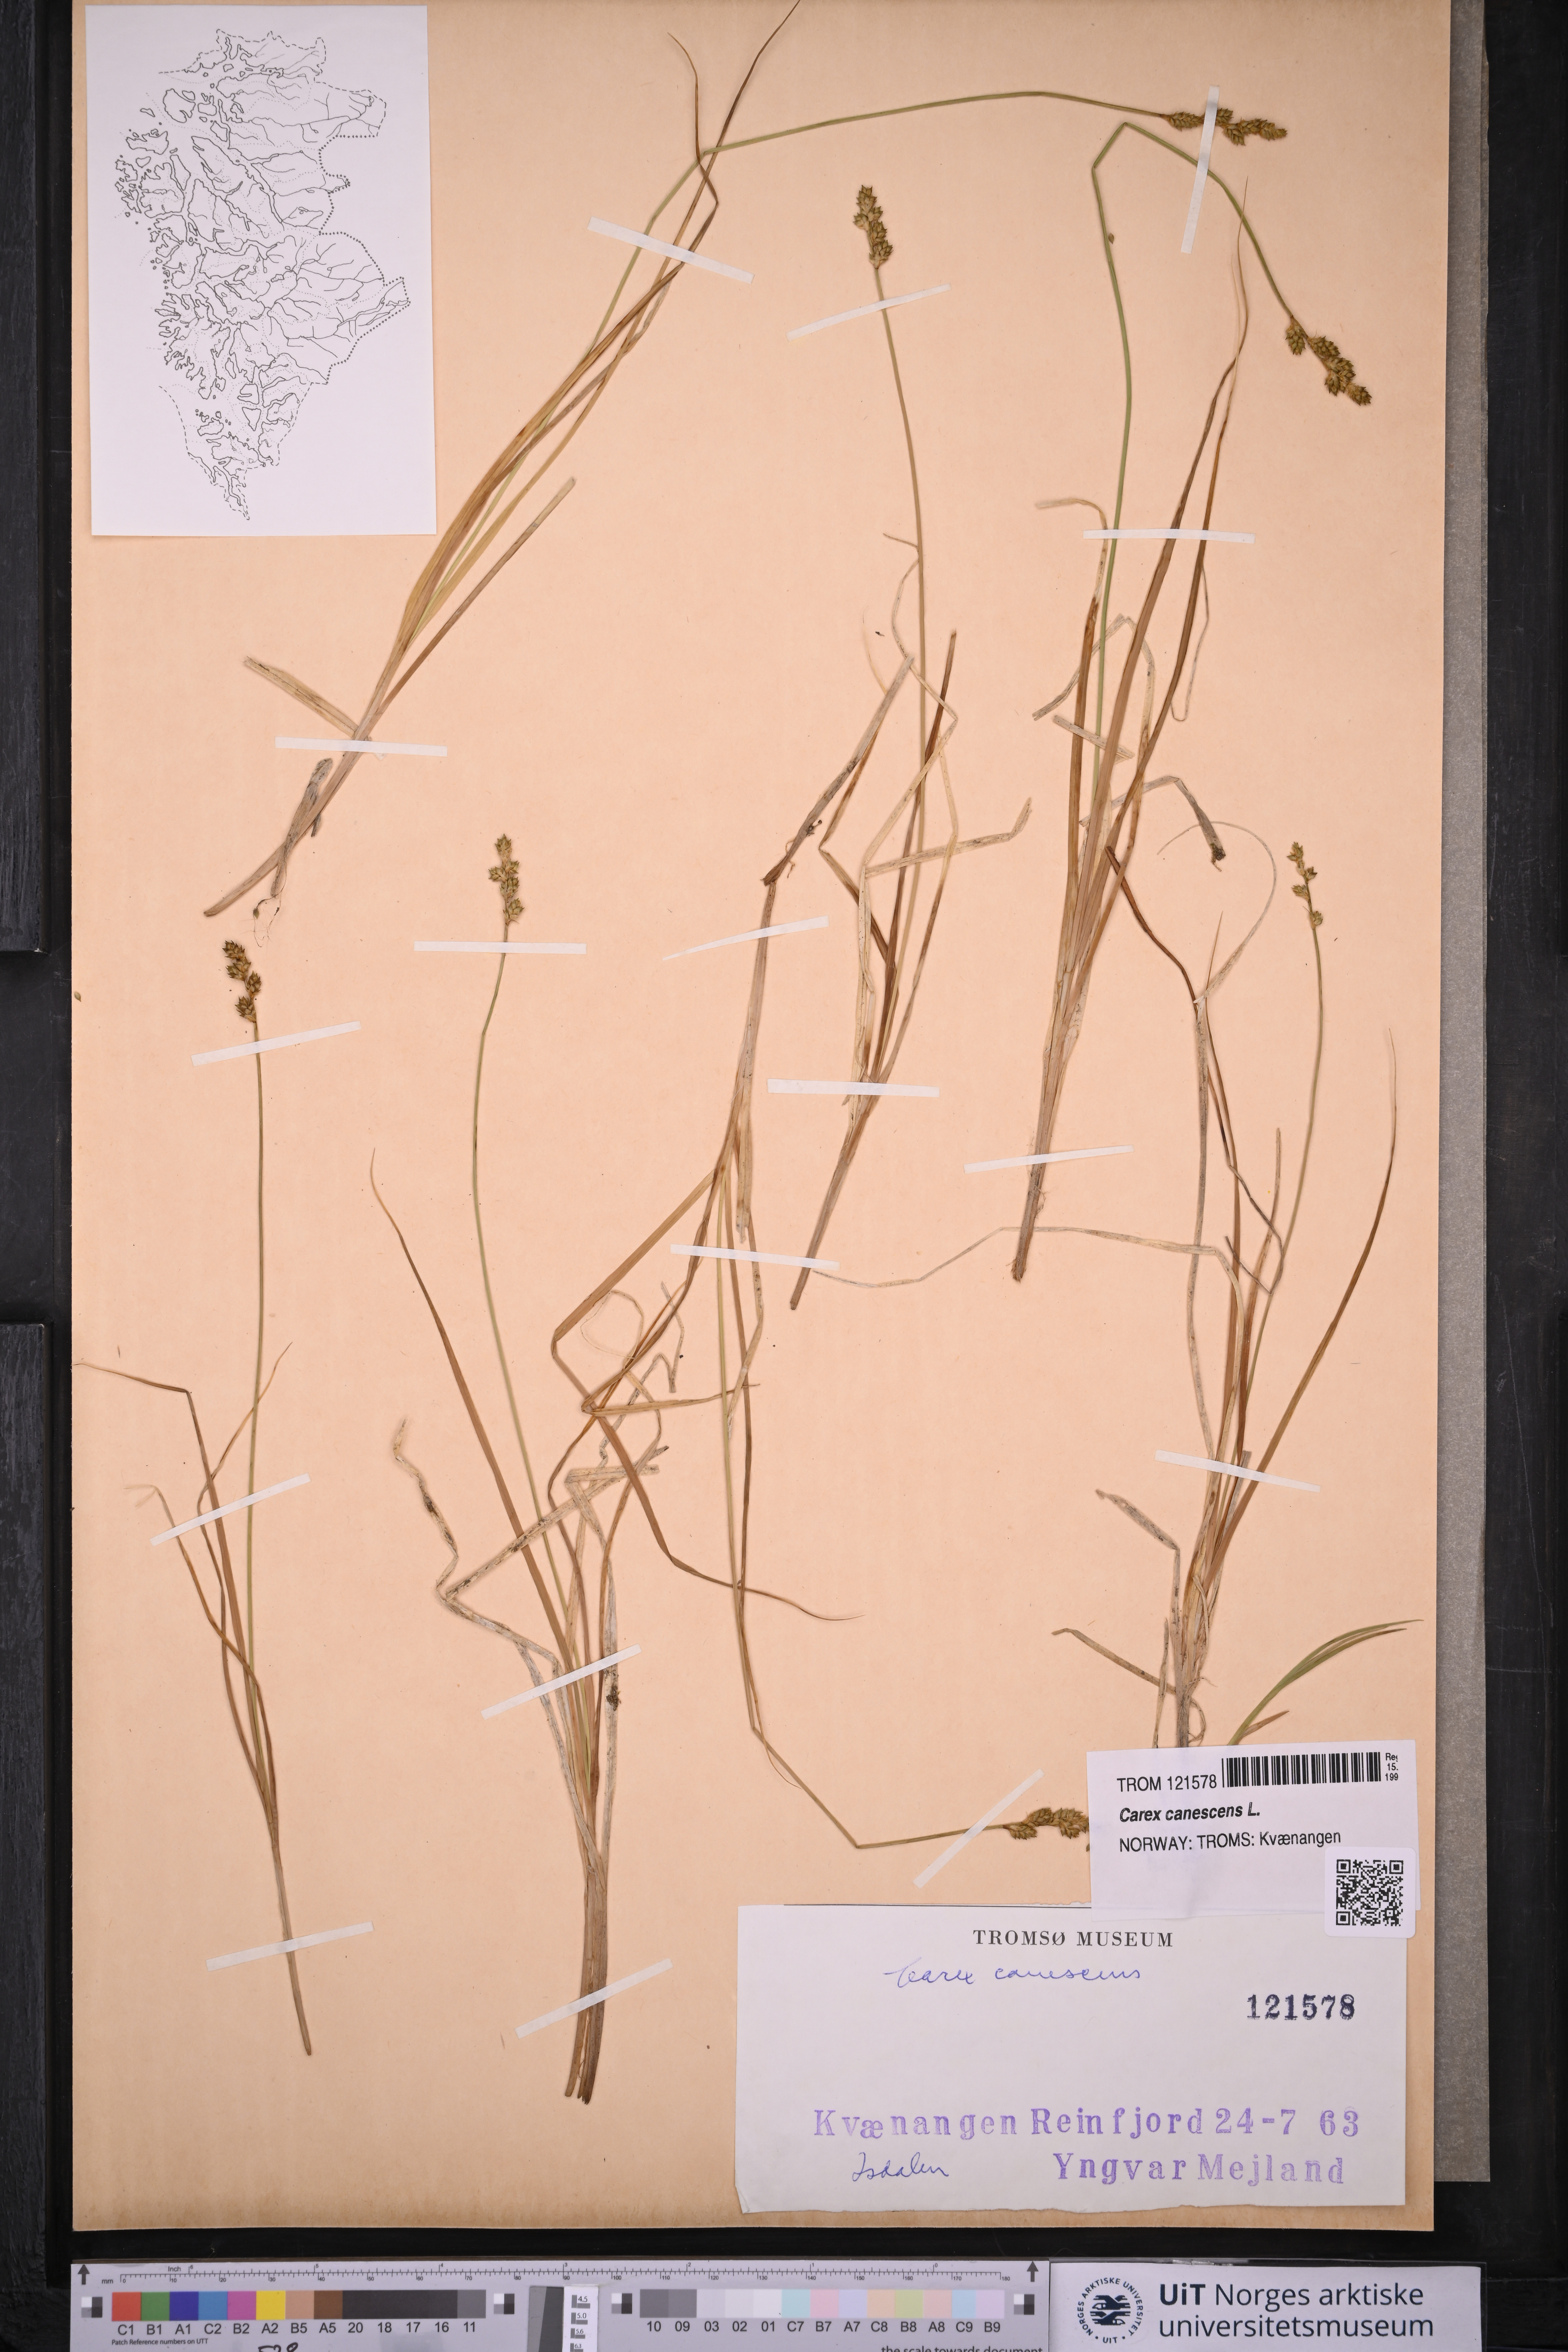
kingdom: Plantae
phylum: Tracheophyta
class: Liliopsida
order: Poales
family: Cyperaceae
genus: Carex
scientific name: Carex canescens
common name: White sedge
